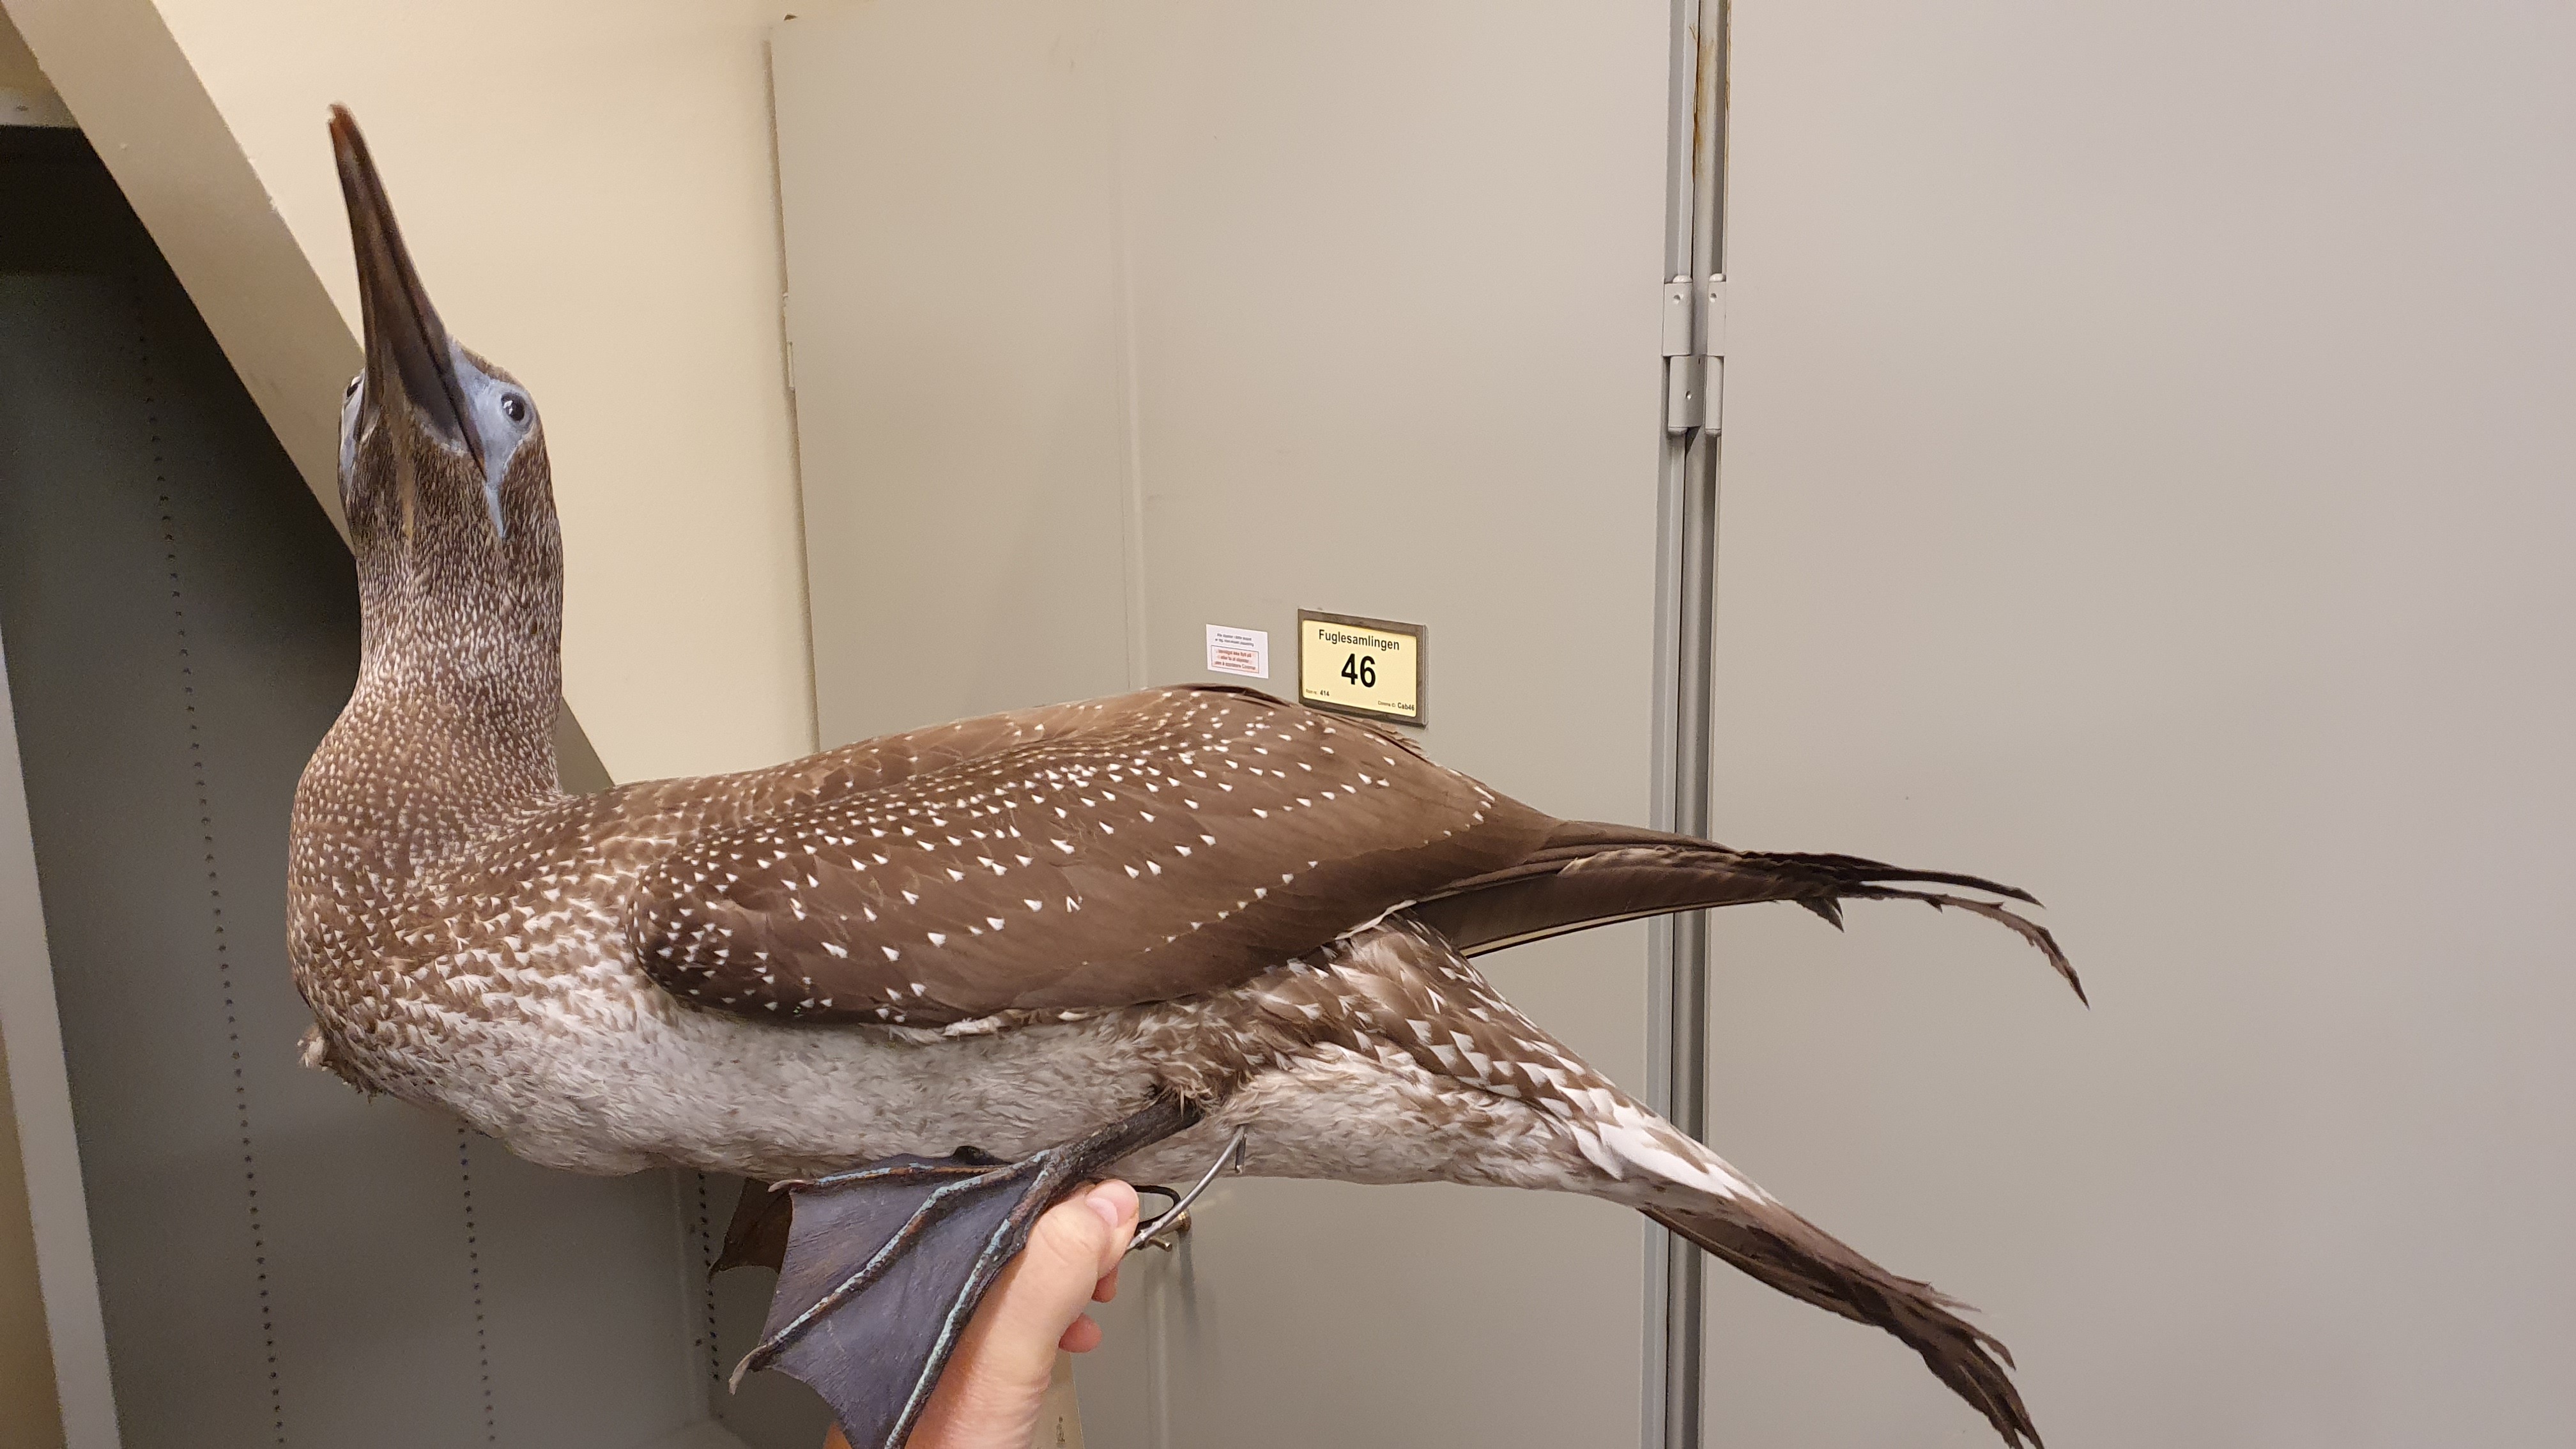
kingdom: Animalia
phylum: Chordata
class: Aves
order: Suliformes
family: Sulidae
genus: Morus
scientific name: Morus bassanus
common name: Northern gannet
